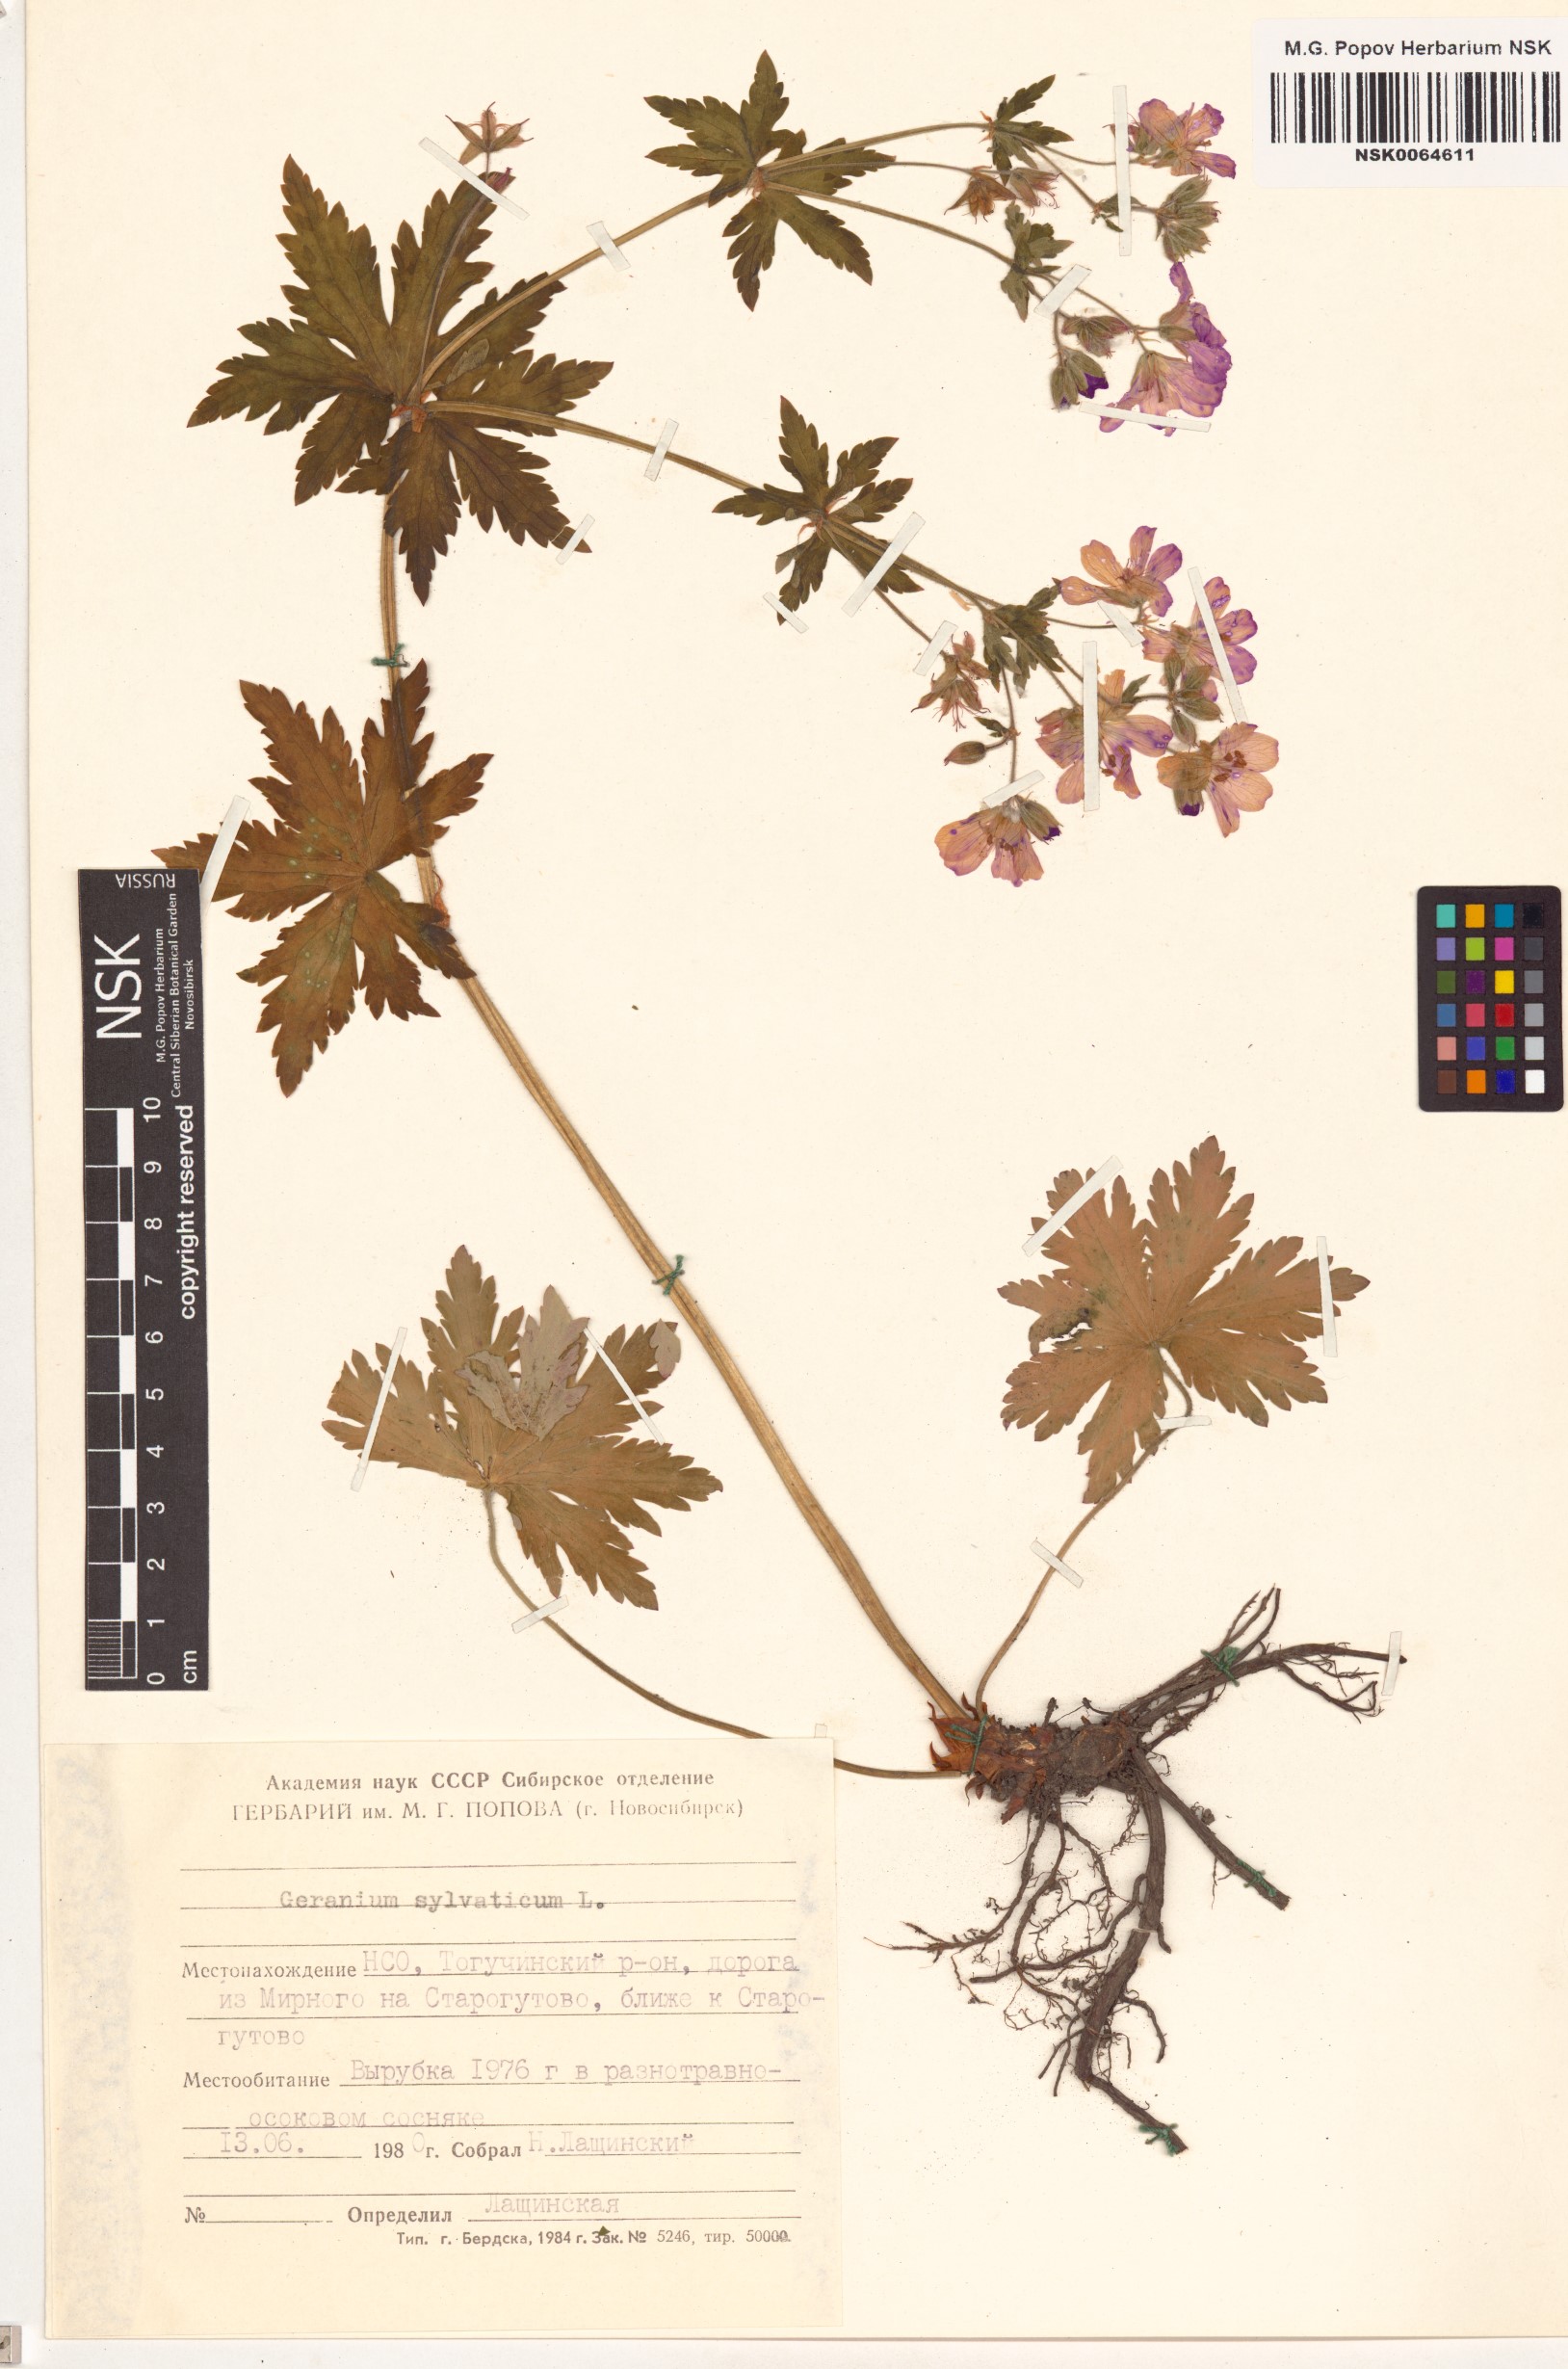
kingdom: Plantae
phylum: Tracheophyta
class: Magnoliopsida
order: Geraniales
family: Geraniaceae
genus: Geranium
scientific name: Geranium sylvaticum
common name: Wood crane's-bill
